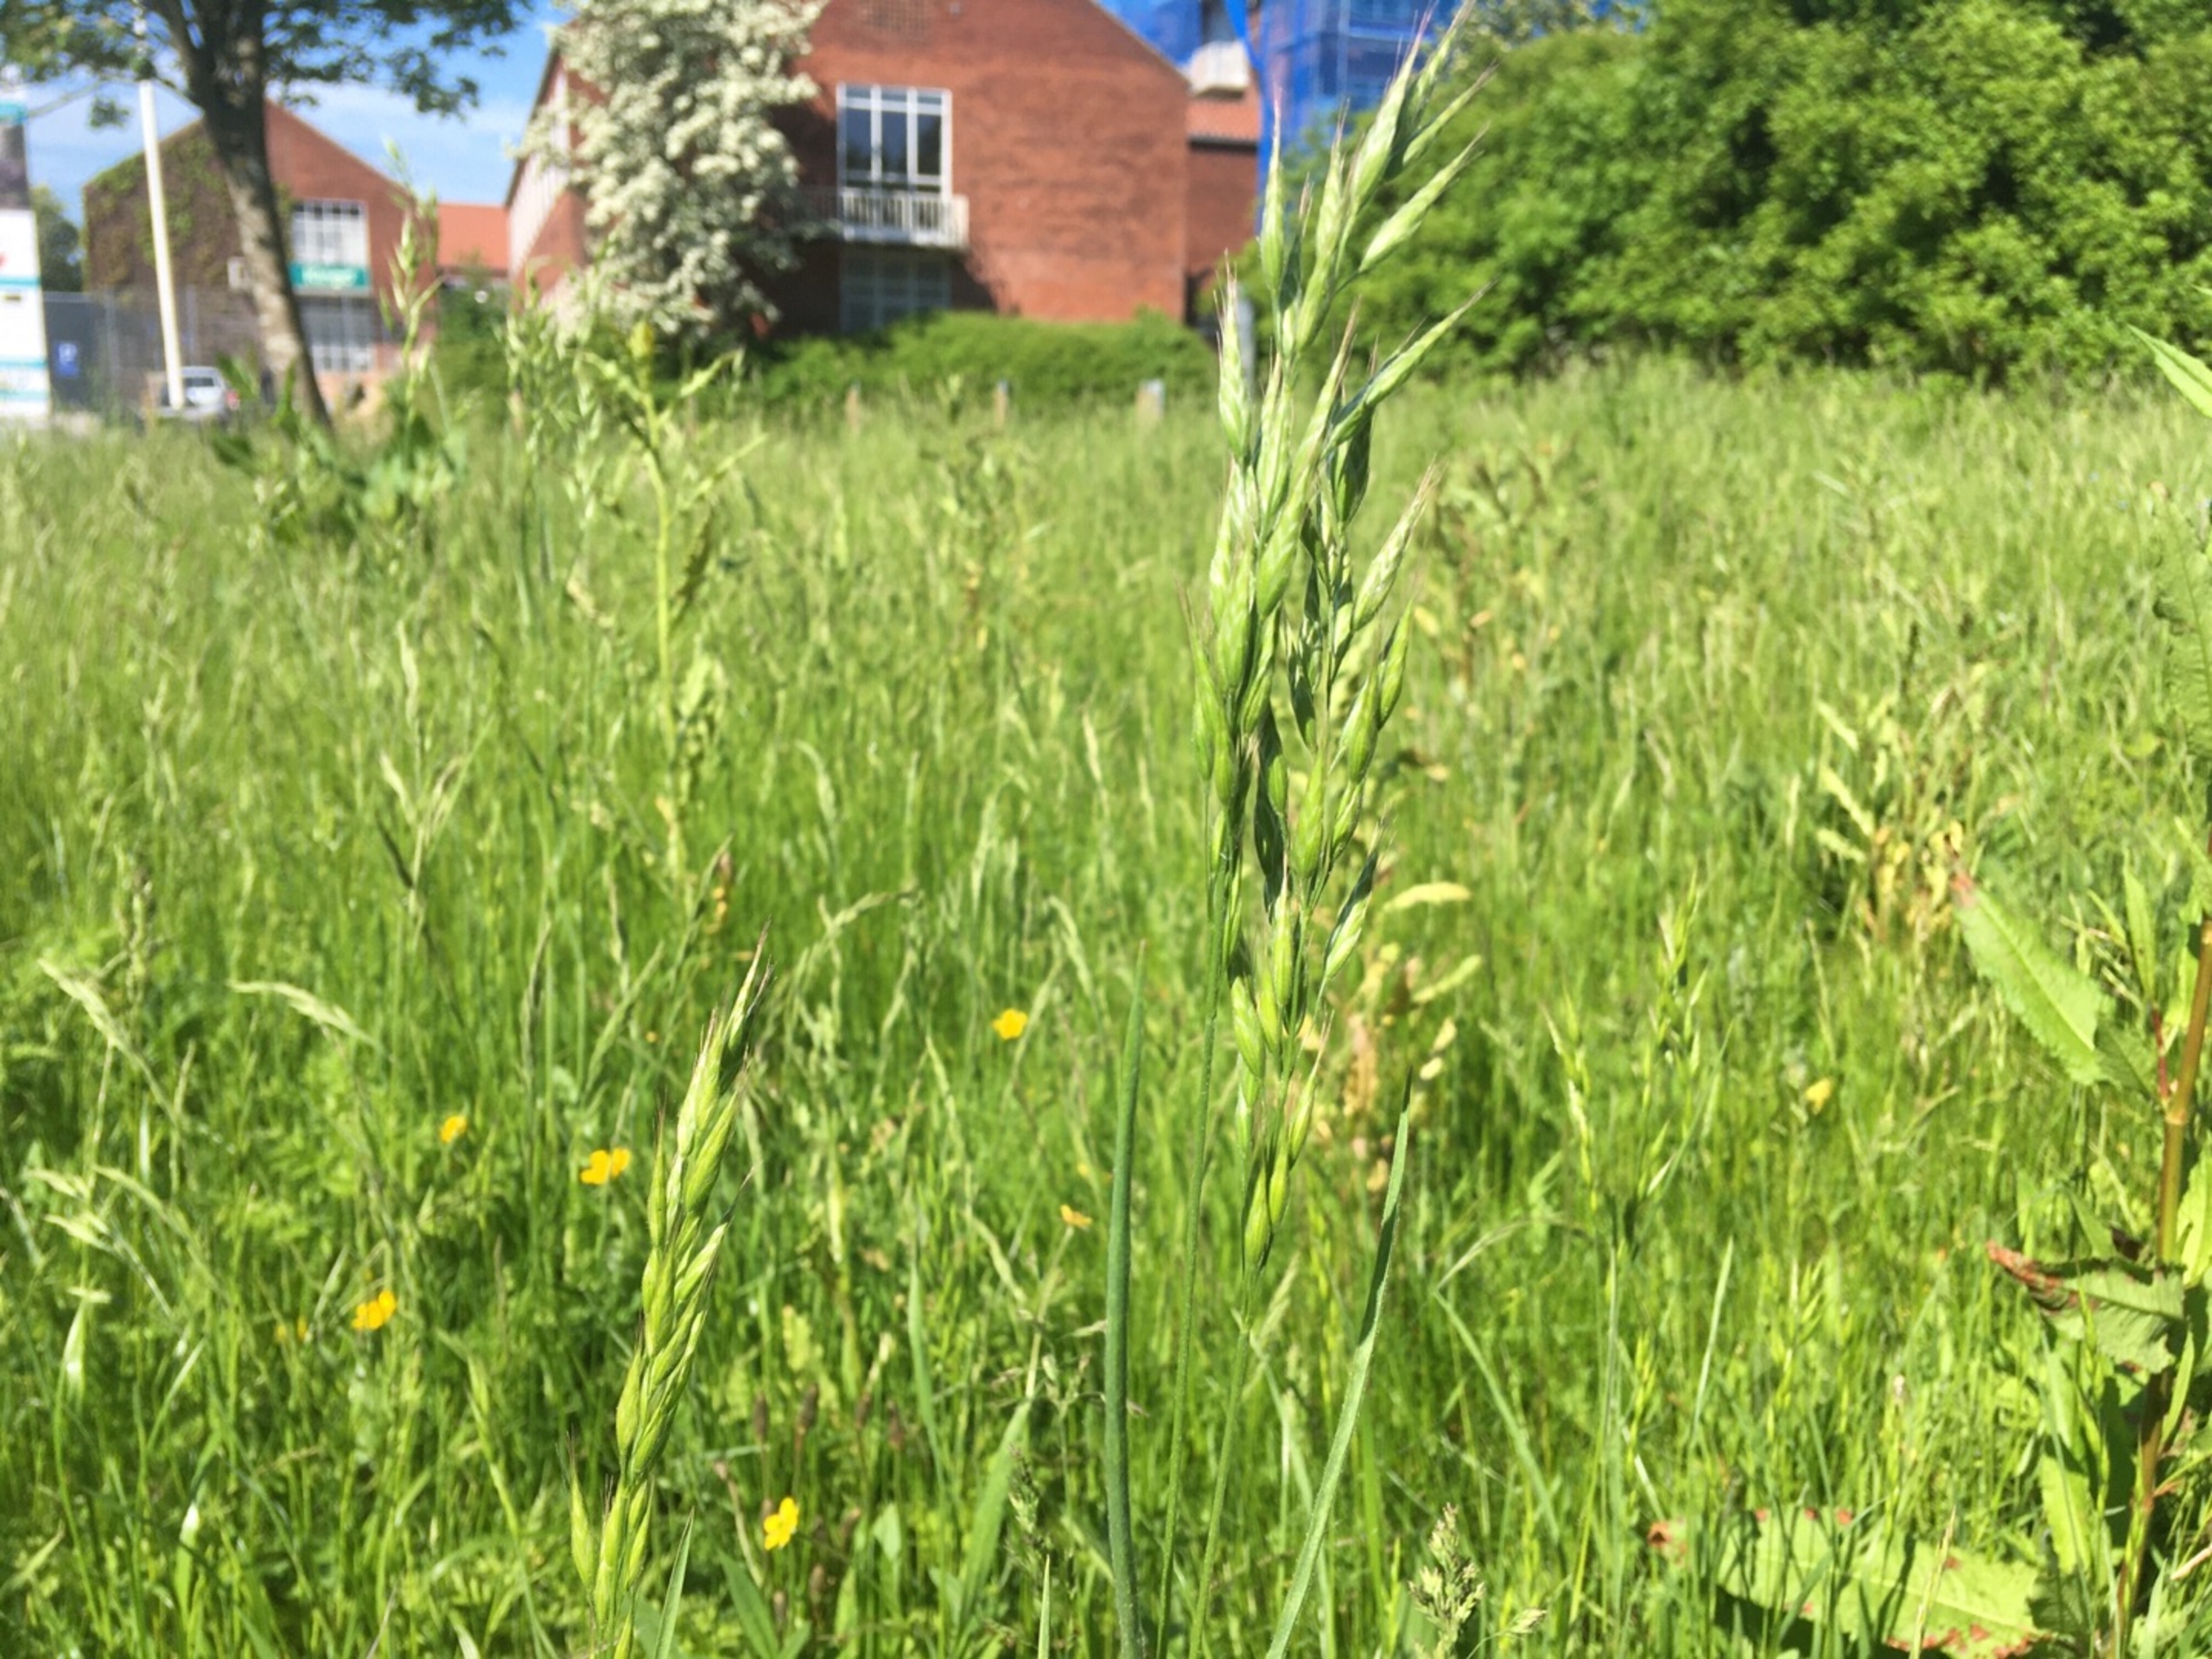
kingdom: Plantae
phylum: Tracheophyta
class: Liliopsida
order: Poales
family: Poaceae
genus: Bromus
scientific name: Bromus hordeaceus
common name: Blød hejre
